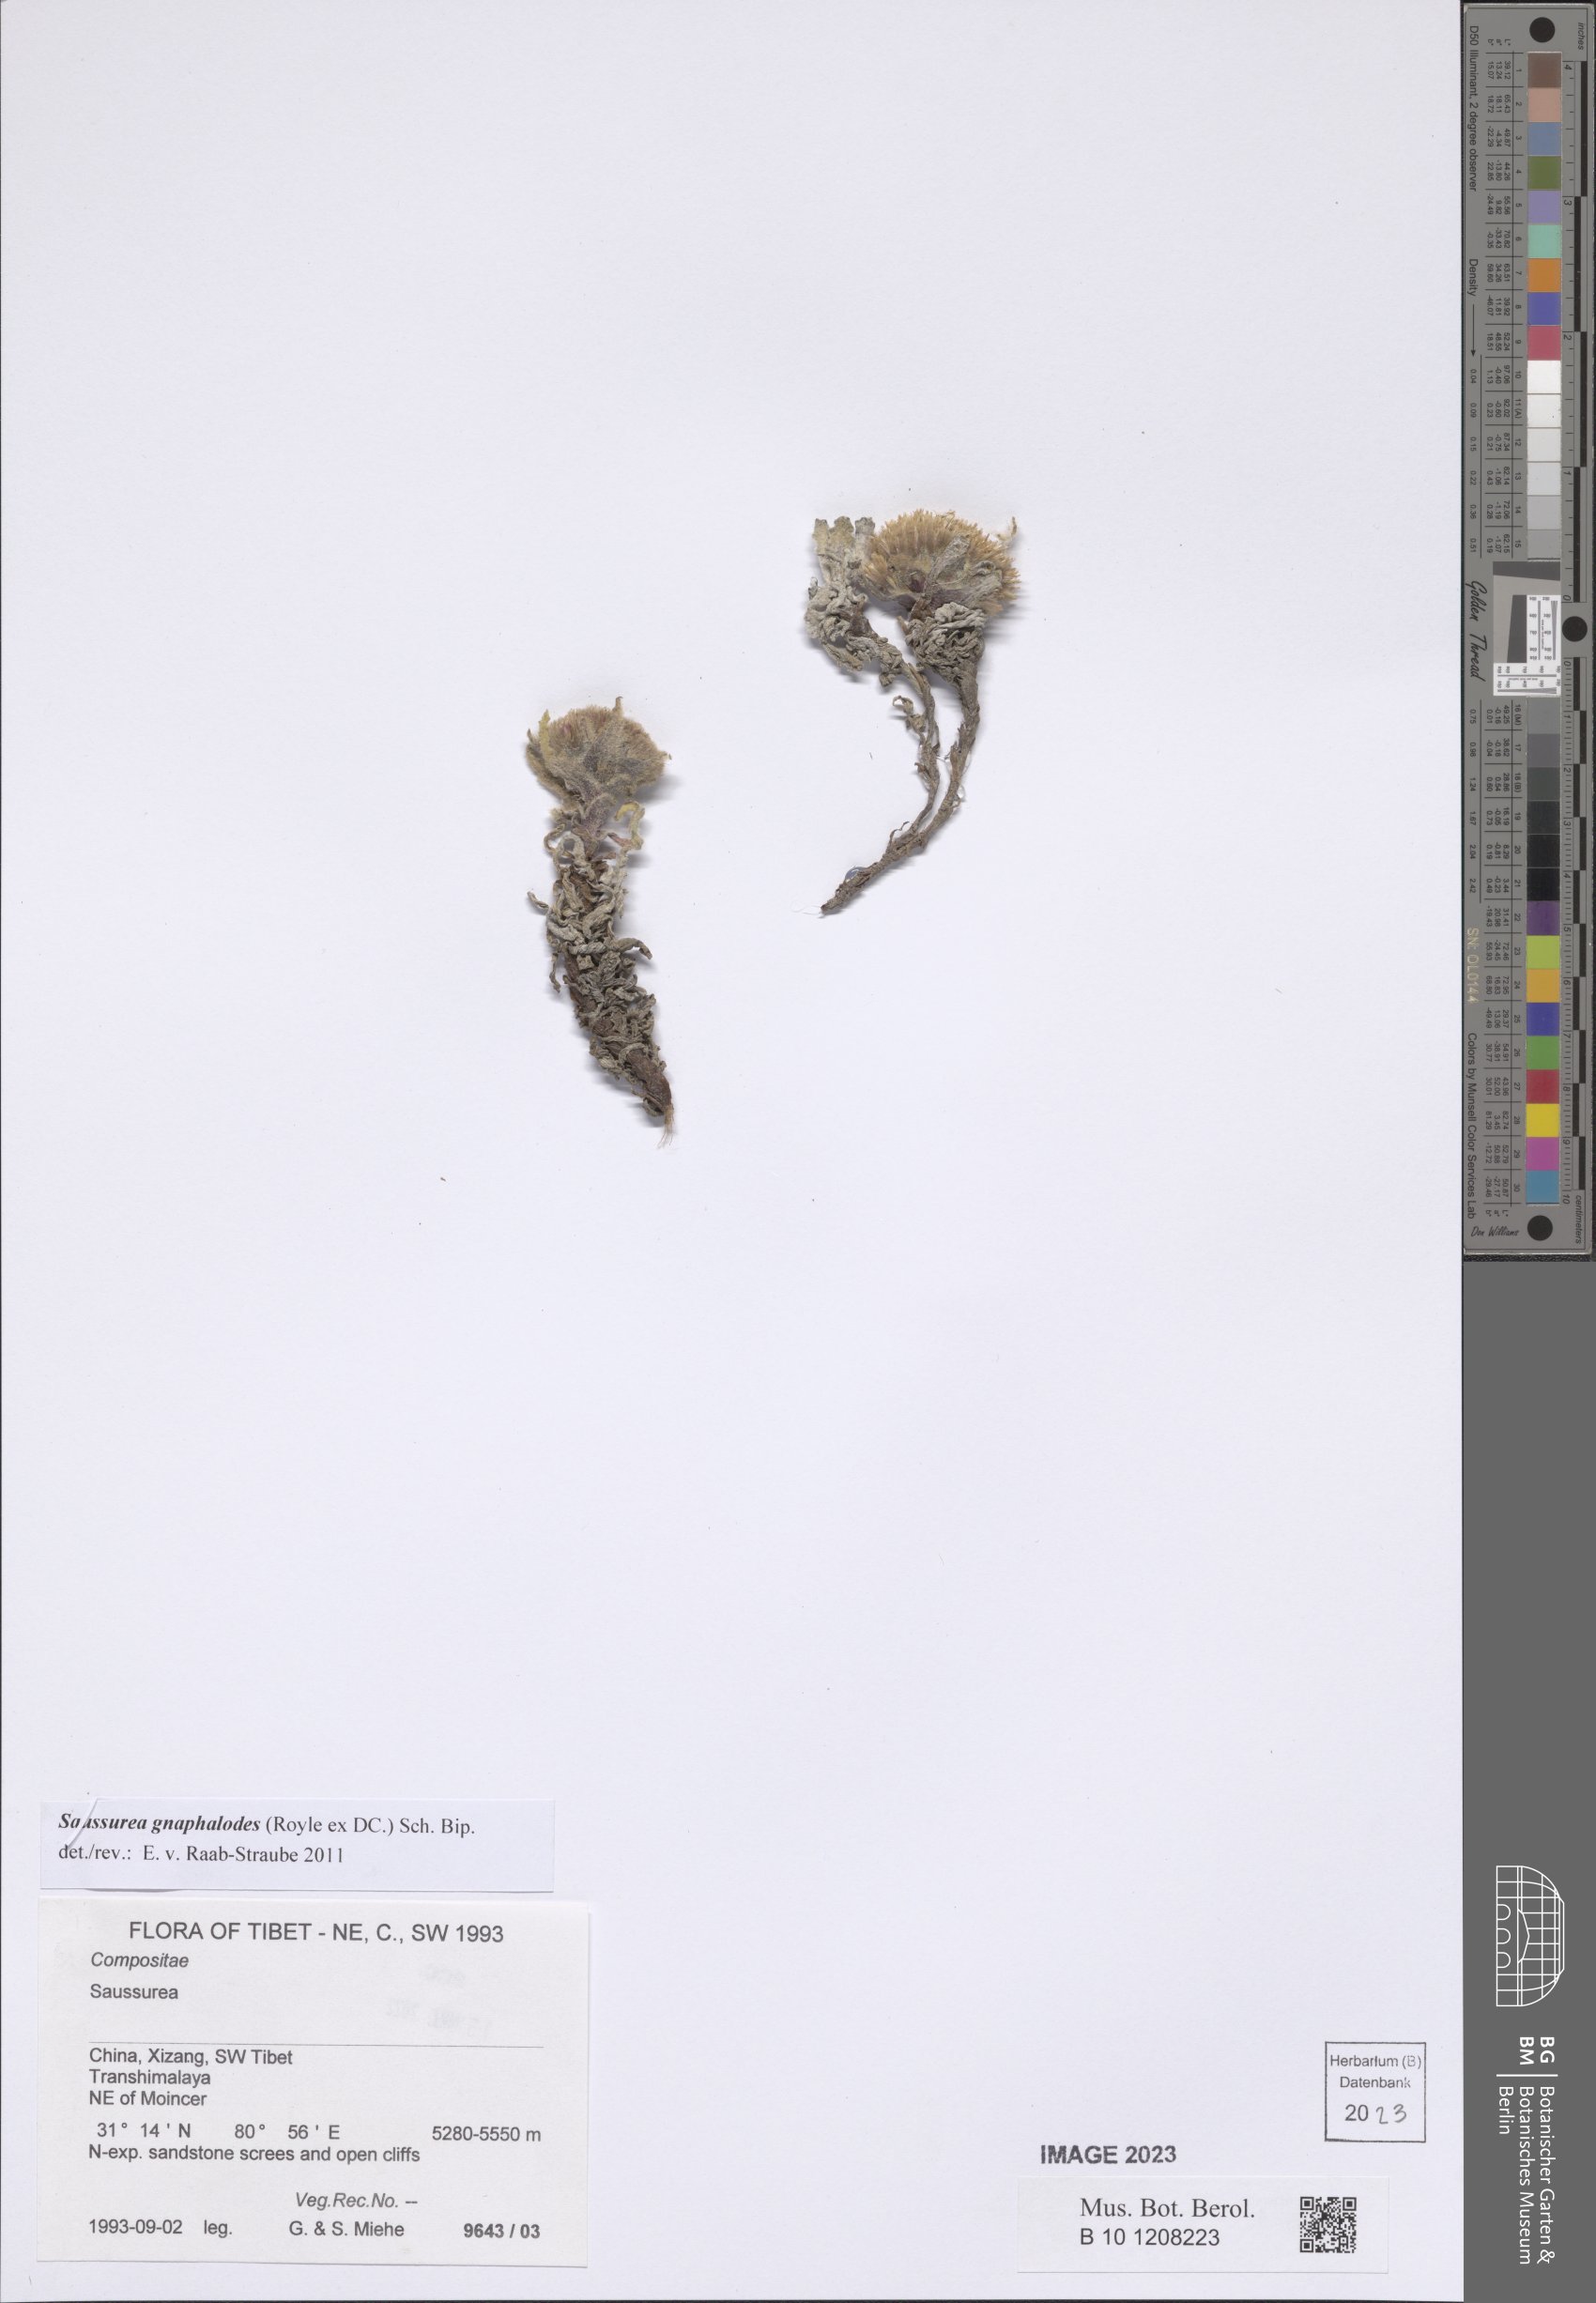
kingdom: Plantae
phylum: Tracheophyta
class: Magnoliopsida
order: Asterales
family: Asteraceae
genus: Saussurea
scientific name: Saussurea gnaphalodes
